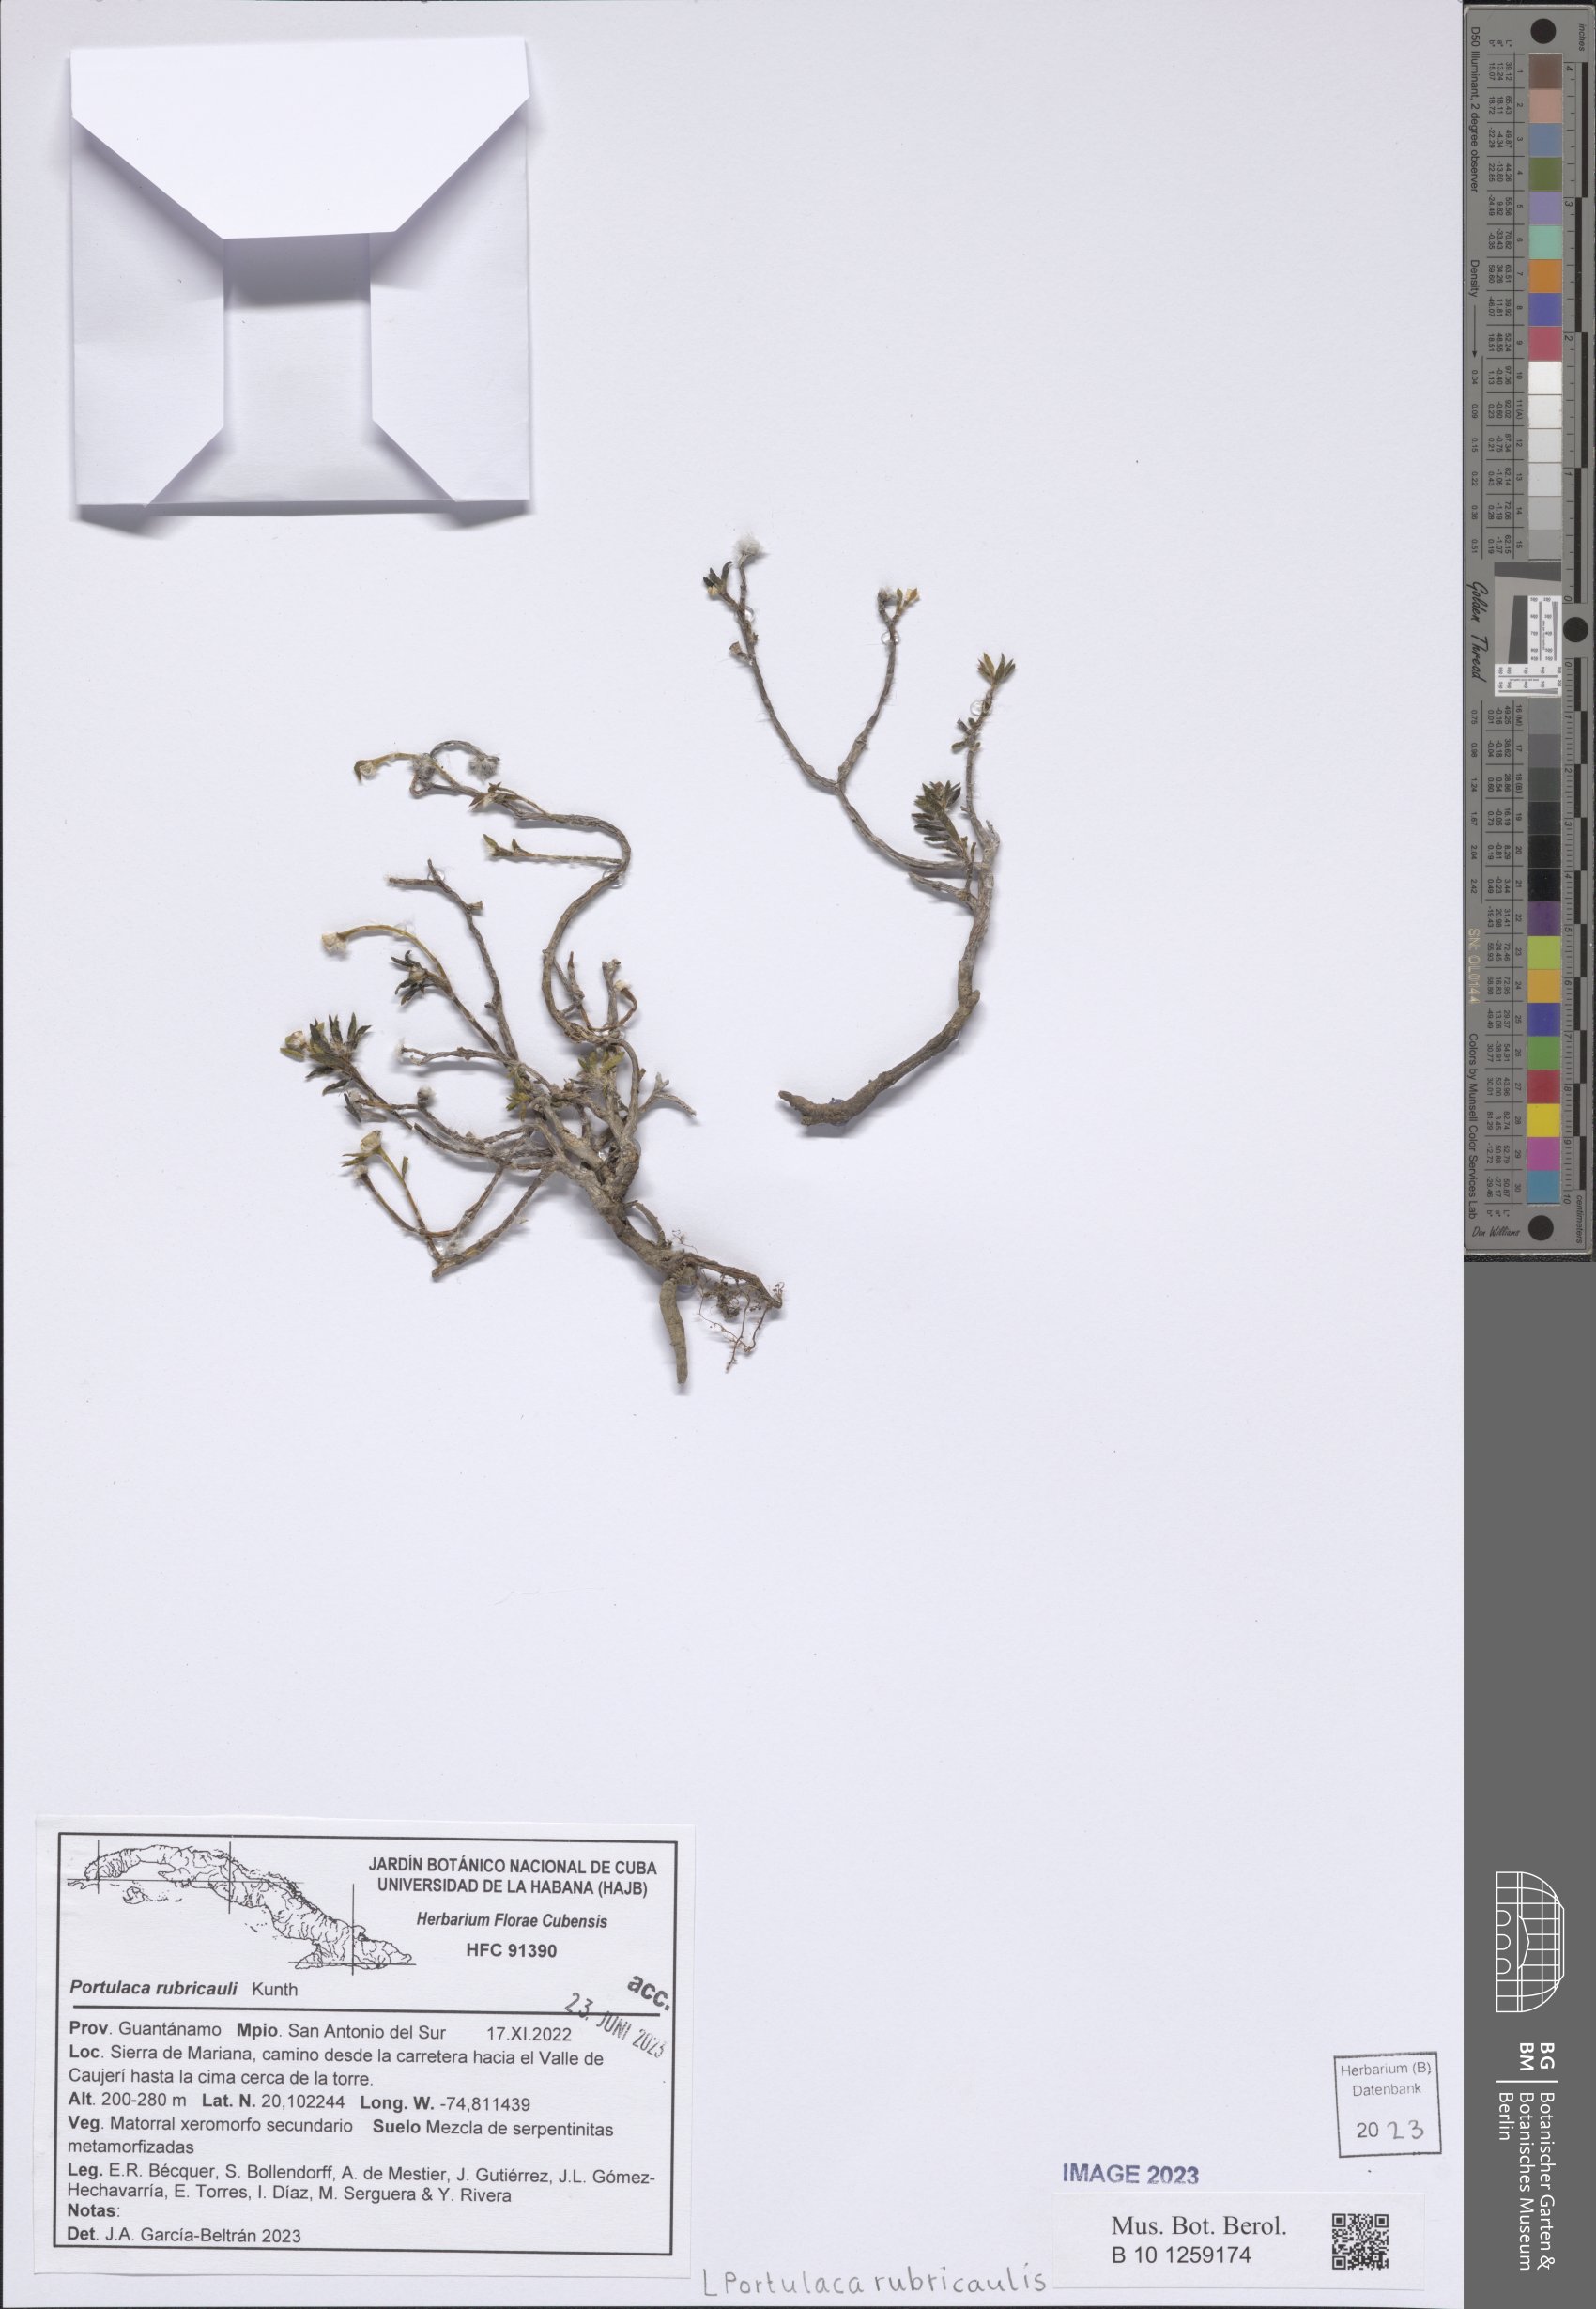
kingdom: Plantae
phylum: Tracheophyta
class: Magnoliopsida
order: Caryophyllales
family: Portulacaceae
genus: Portulaca
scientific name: Portulaca rubricaulis
